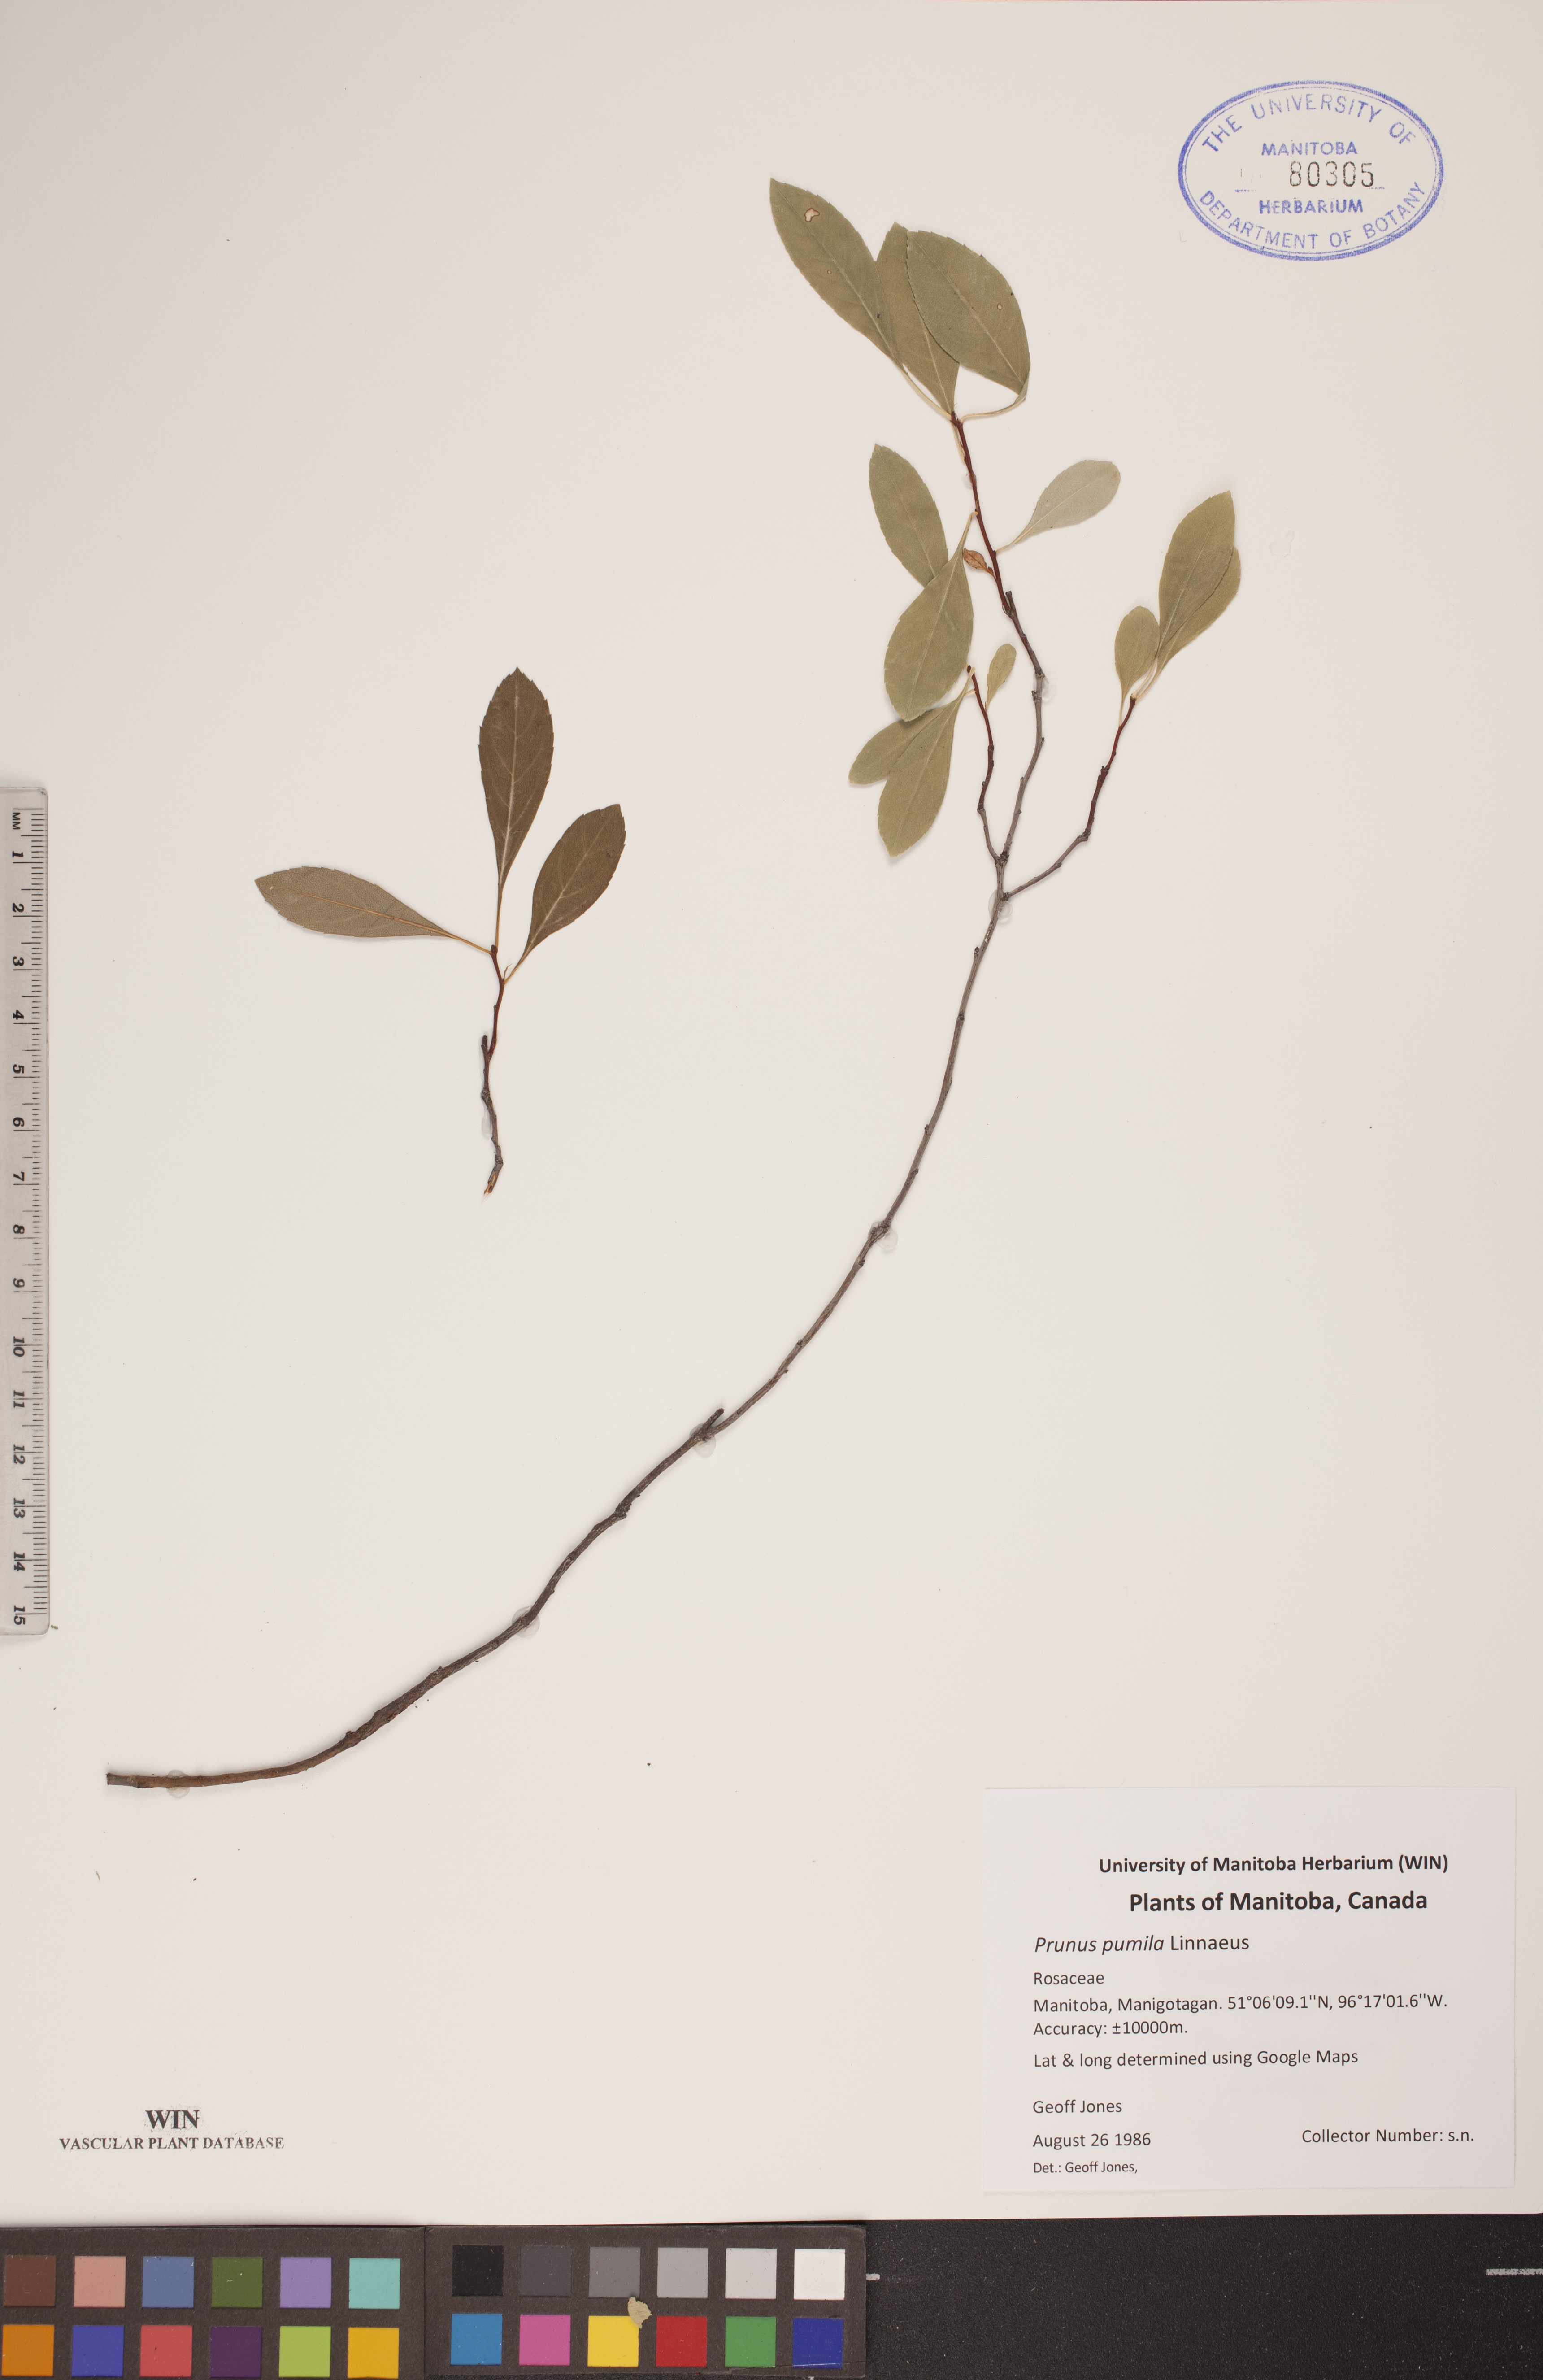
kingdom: Plantae
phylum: Tracheophyta
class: Magnoliopsida
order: Rosales
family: Rosaceae
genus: Prunus
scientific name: Prunus pumila
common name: Dwarf cherry
